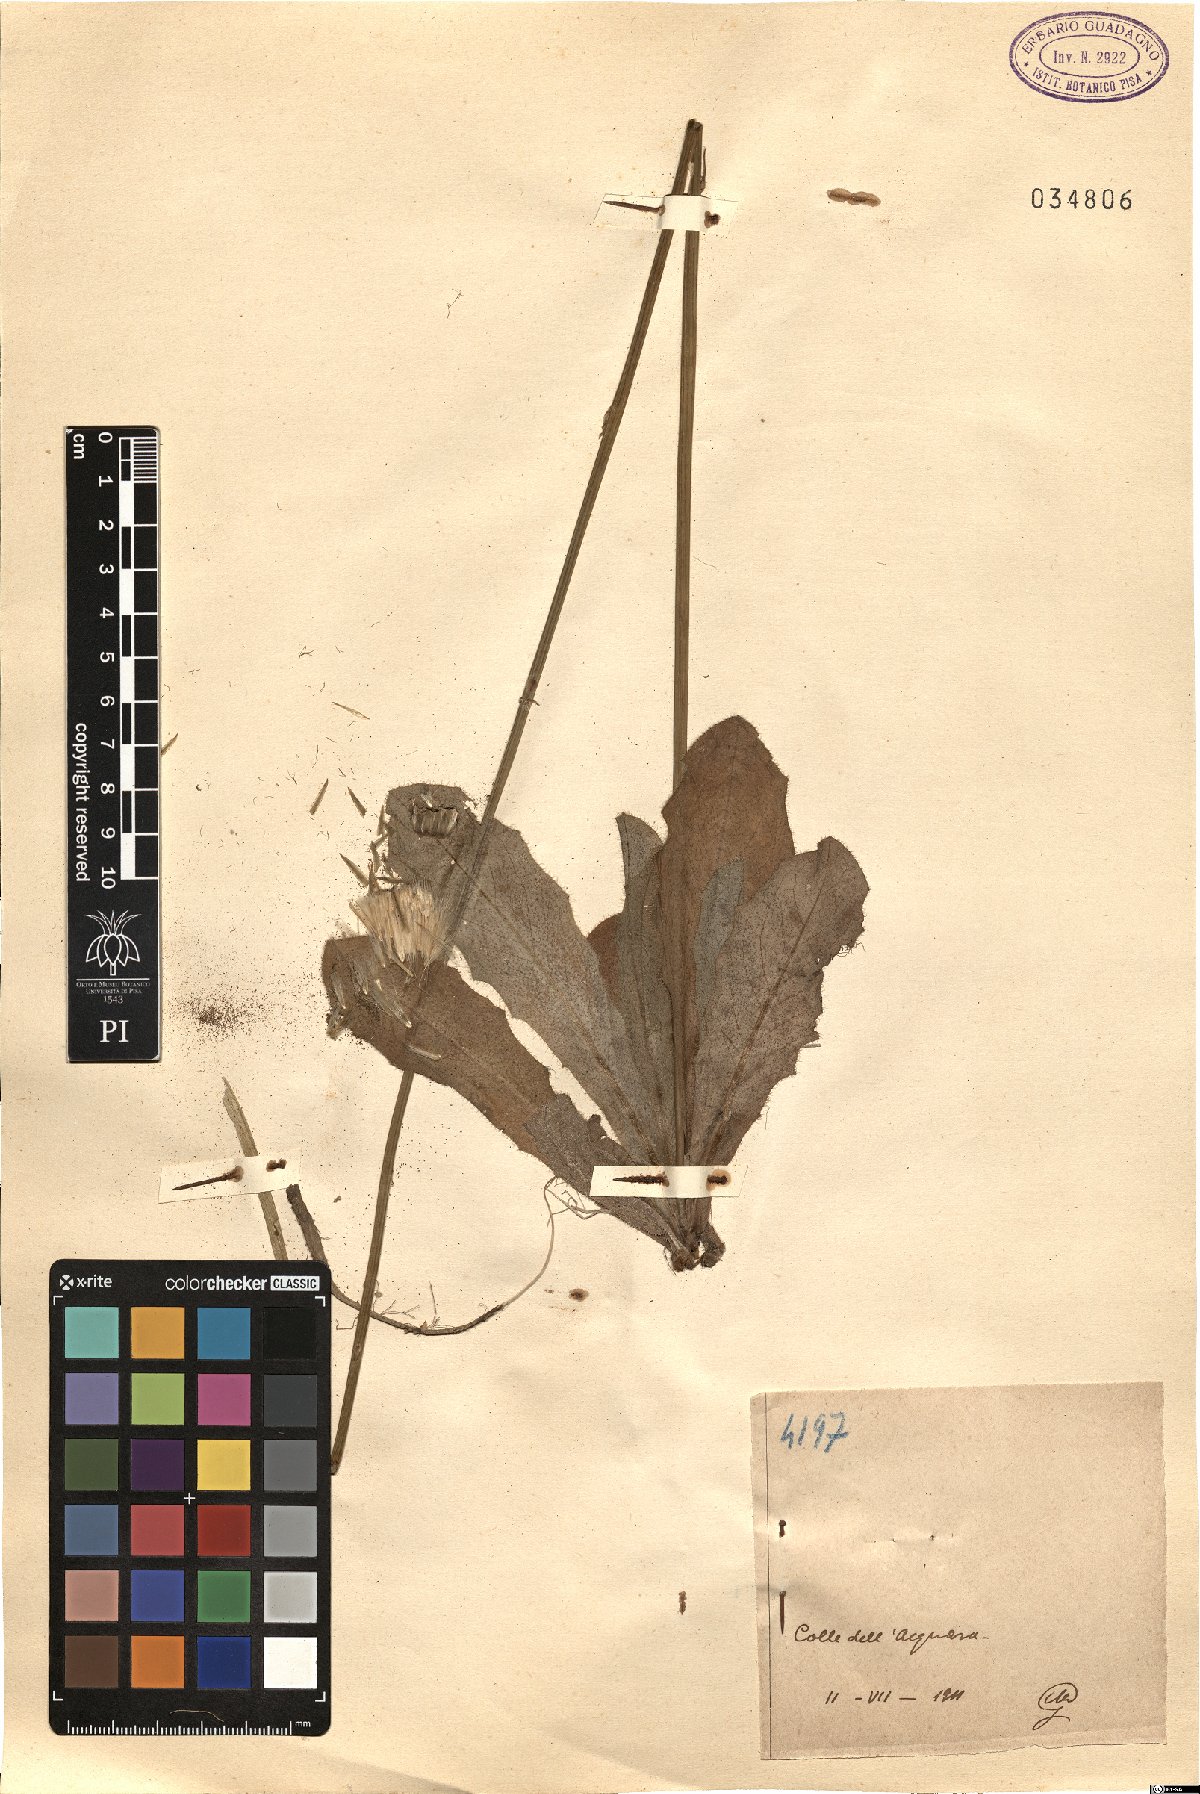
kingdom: Plantae
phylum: Tracheophyta
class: Magnoliopsida
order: Asterales
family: Asteraceae
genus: Hypochaeris
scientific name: Hypochaeris
